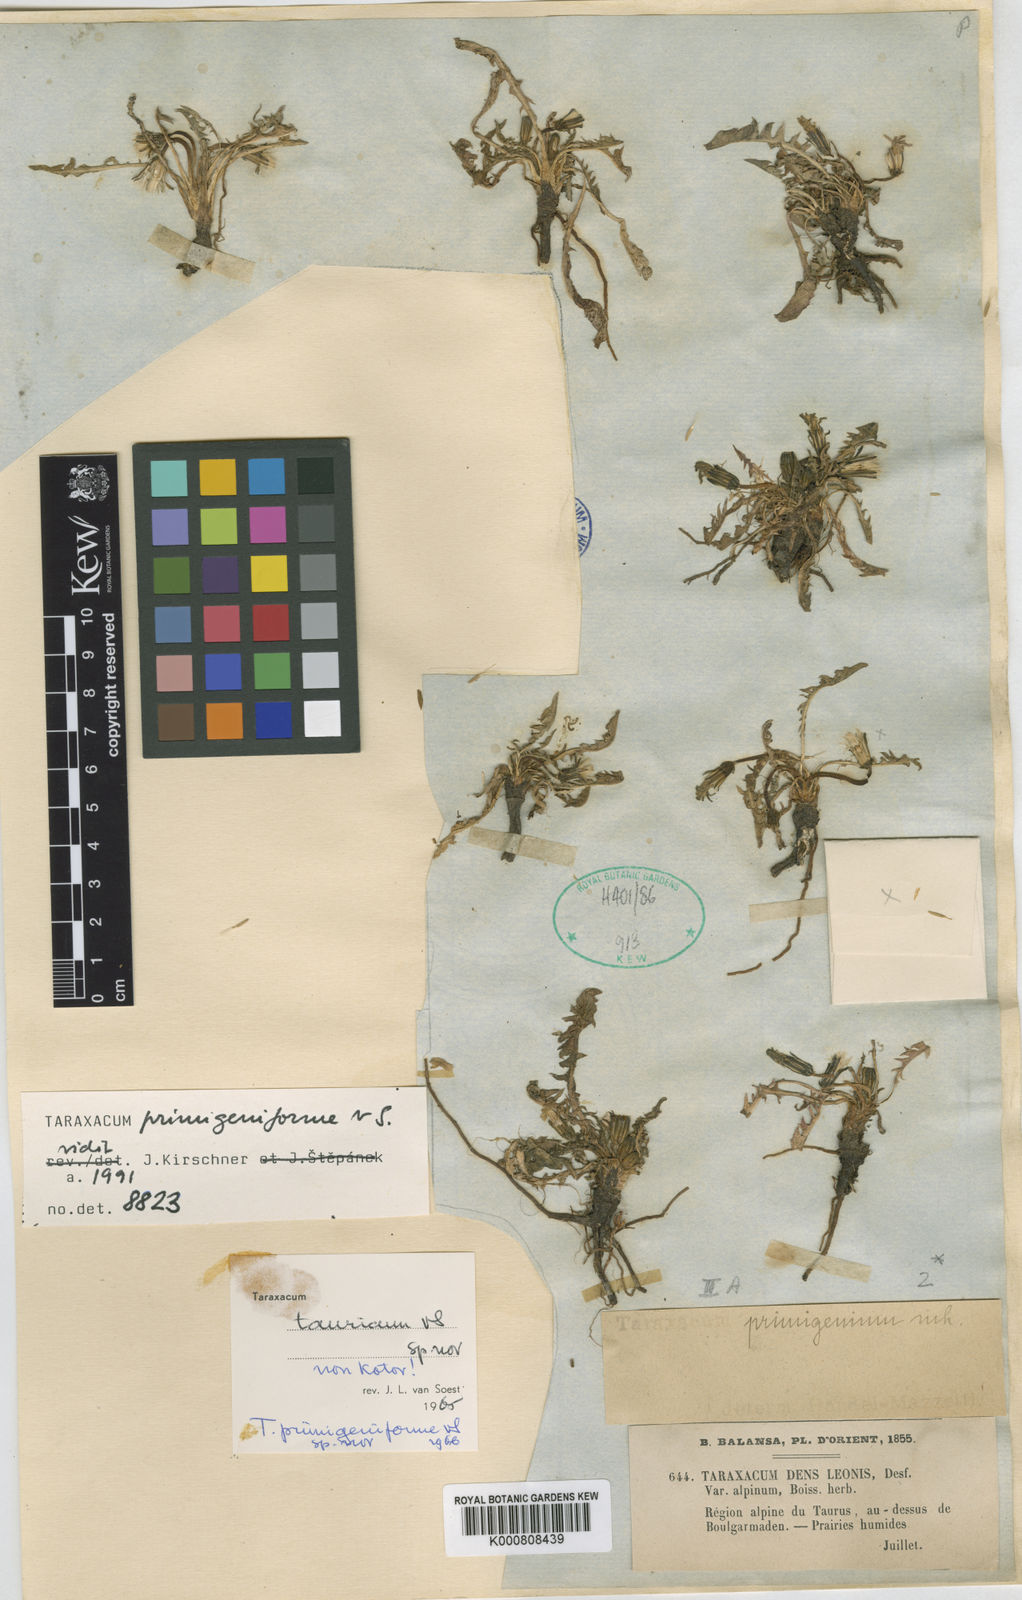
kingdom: Plantae
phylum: Tracheophyta
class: Magnoliopsida
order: Asterales
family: Asteraceae
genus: Taraxacum
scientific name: Taraxacum assemanii
